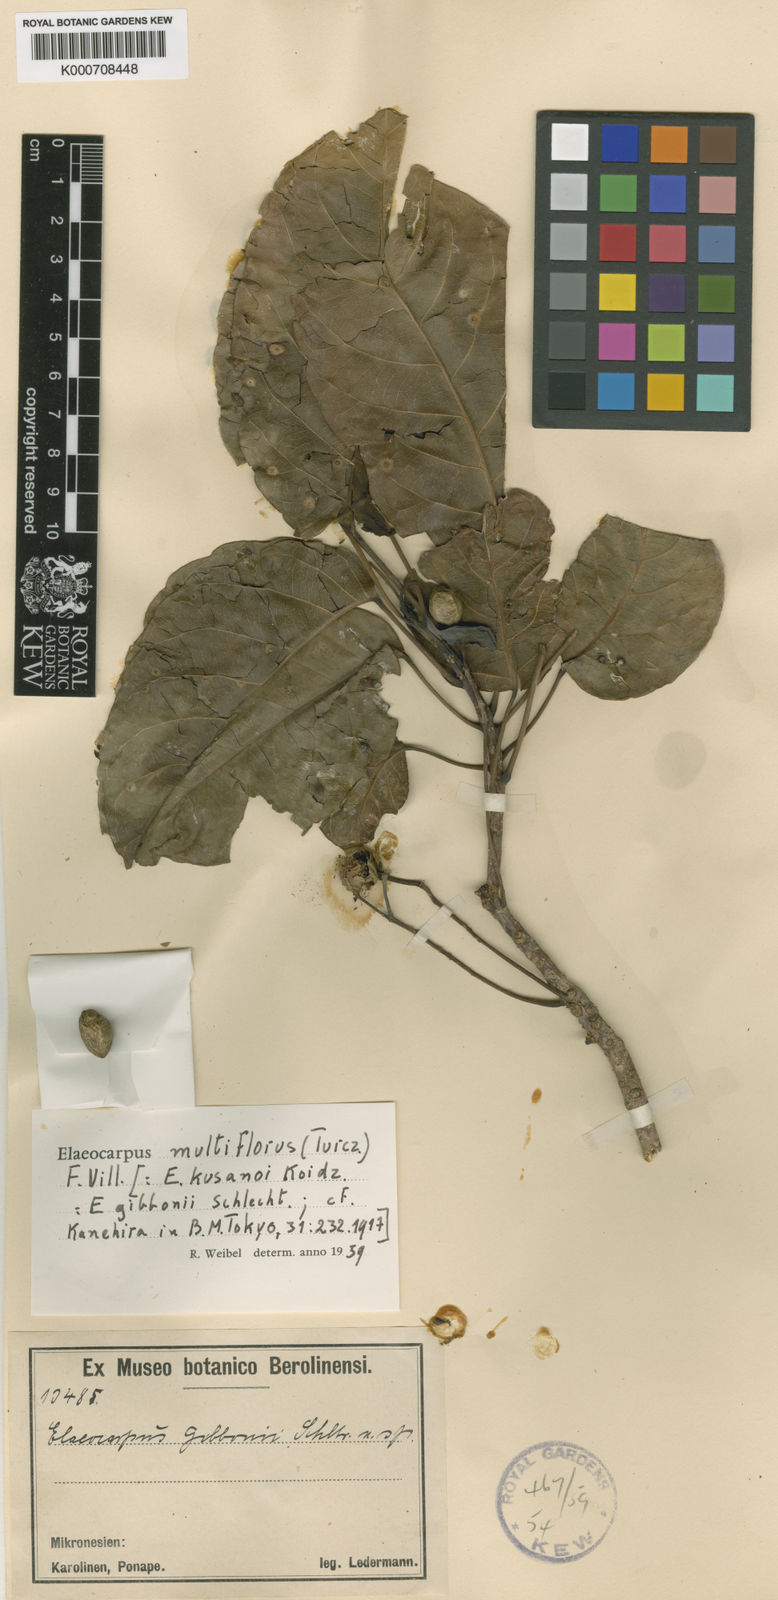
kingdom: Plantae
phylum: Tracheophyta
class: Magnoliopsida
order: Oxalidales
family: Elaeocarpaceae
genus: Elaeocarpus
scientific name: Elaeocarpus multiflorus
